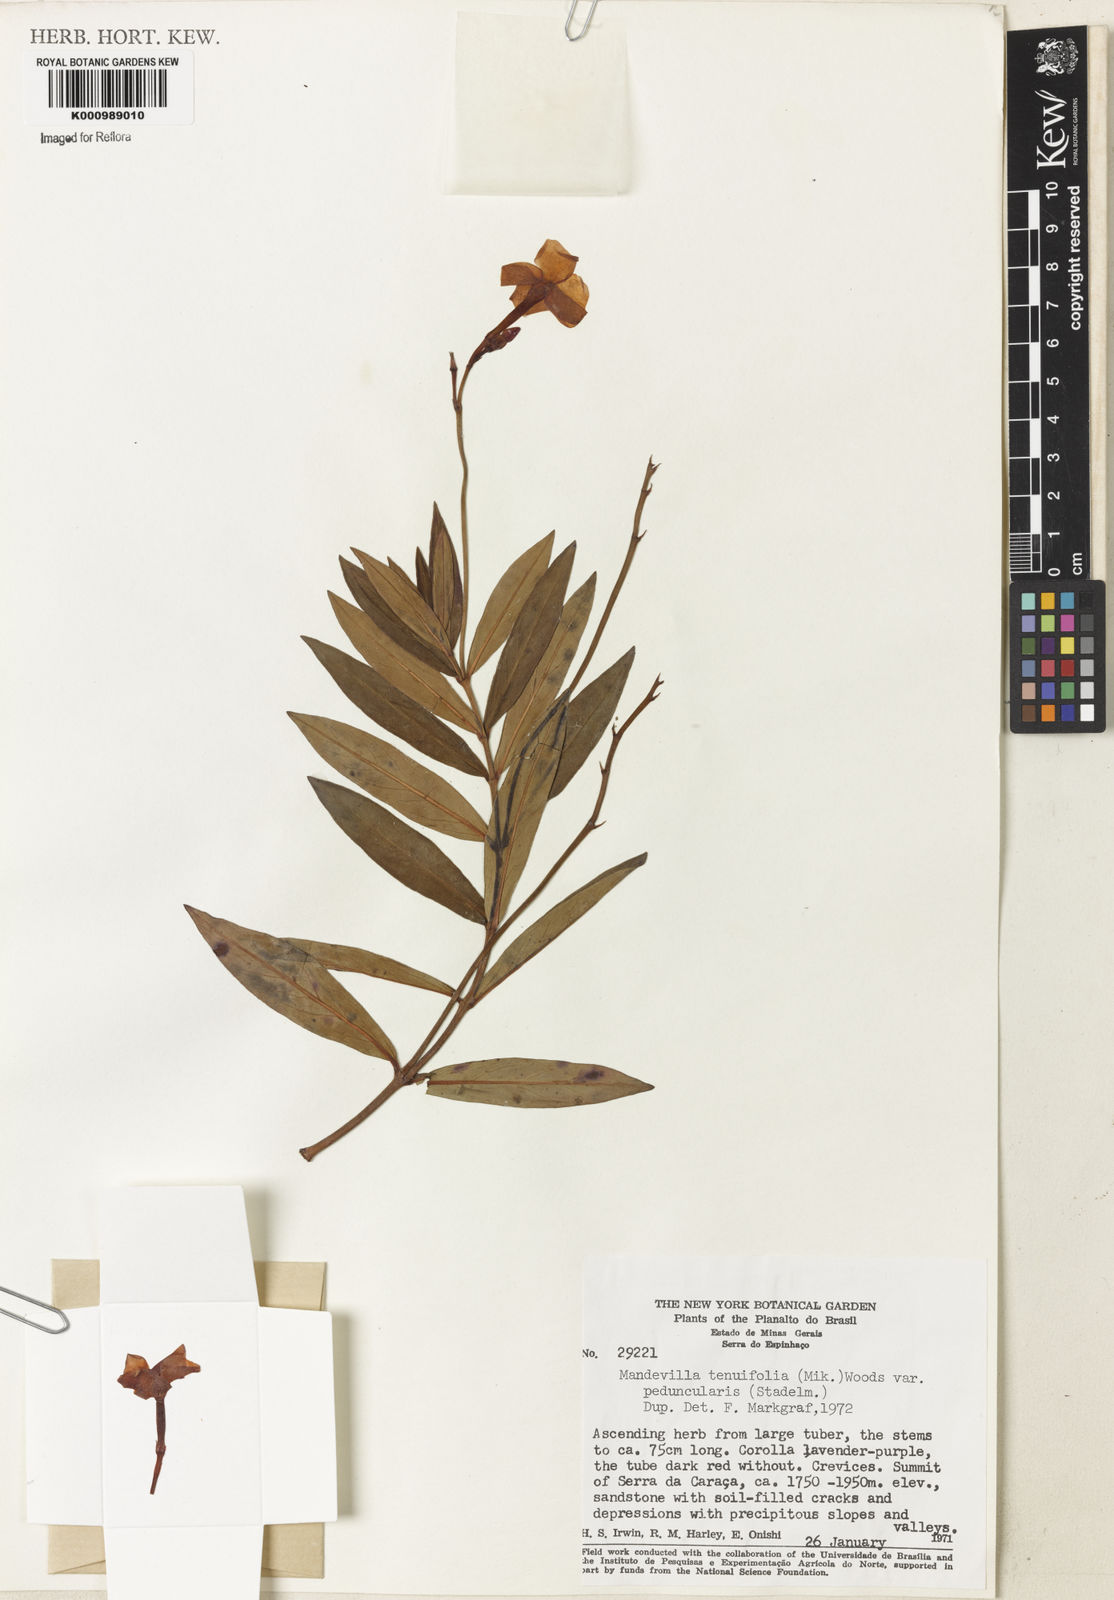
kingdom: Plantae
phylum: Tracheophyta
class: Magnoliopsida
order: Gentianales
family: Apocynaceae
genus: Mandevilla
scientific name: Mandevilla tenuifolia
